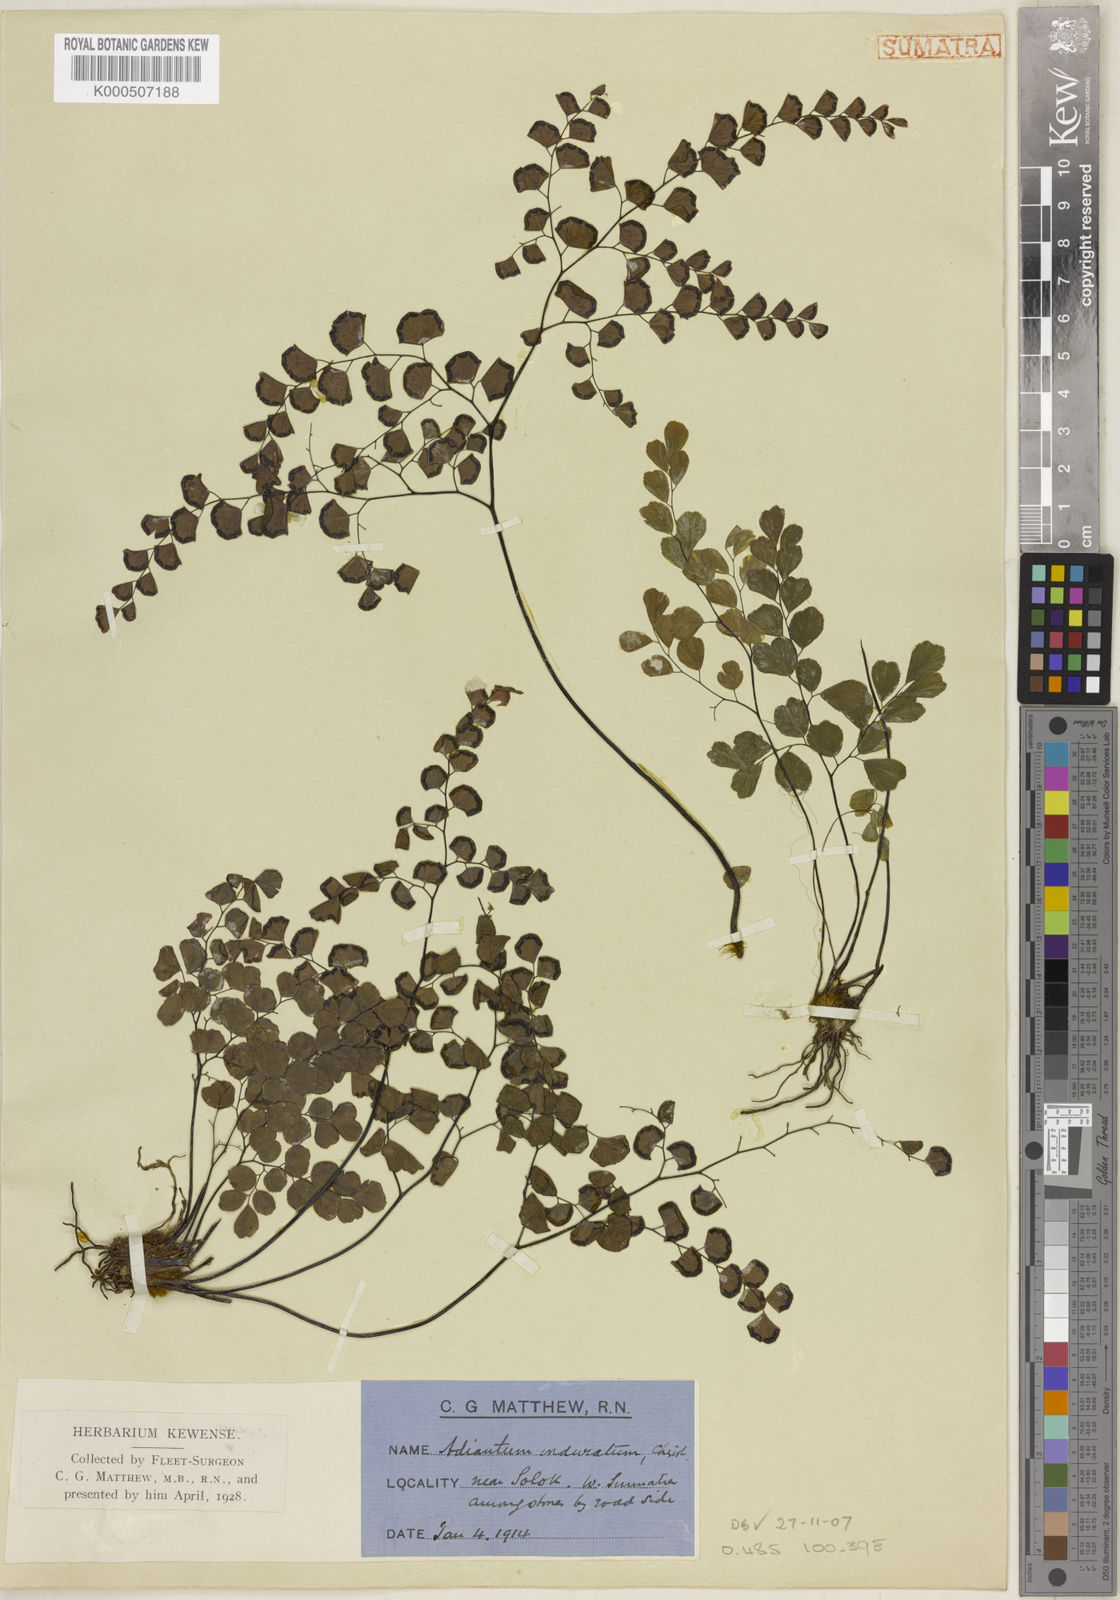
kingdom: Plantae
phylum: Tracheophyta
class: Polypodiopsida
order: Polypodiales
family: Pteridaceae
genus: Adiantum
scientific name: Adiantum flabellulatum
